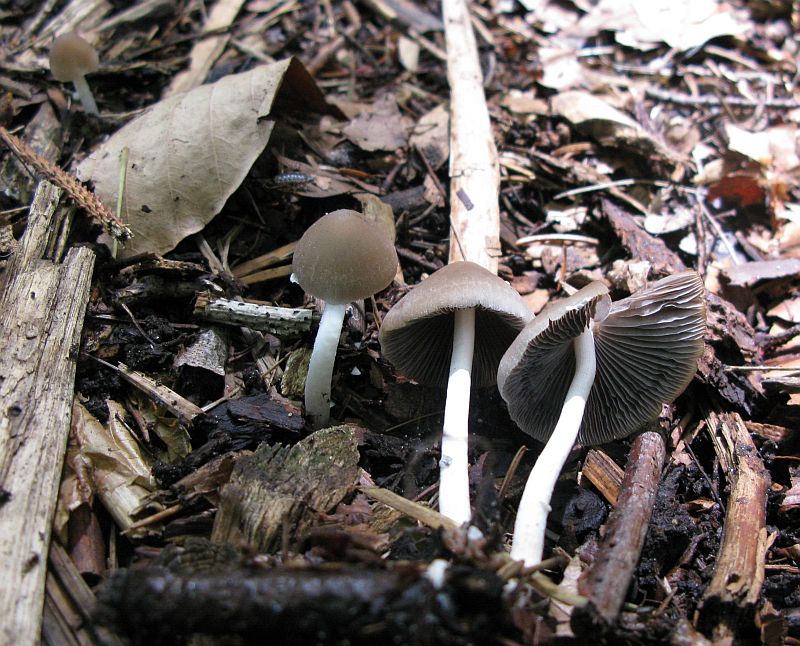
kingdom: Fungi
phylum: Basidiomycota
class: Agaricomycetes
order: Agaricales
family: Psathyrellaceae
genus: Coprinopsis
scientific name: Coprinopsis marcescibilis
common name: ruderat-blækhat
